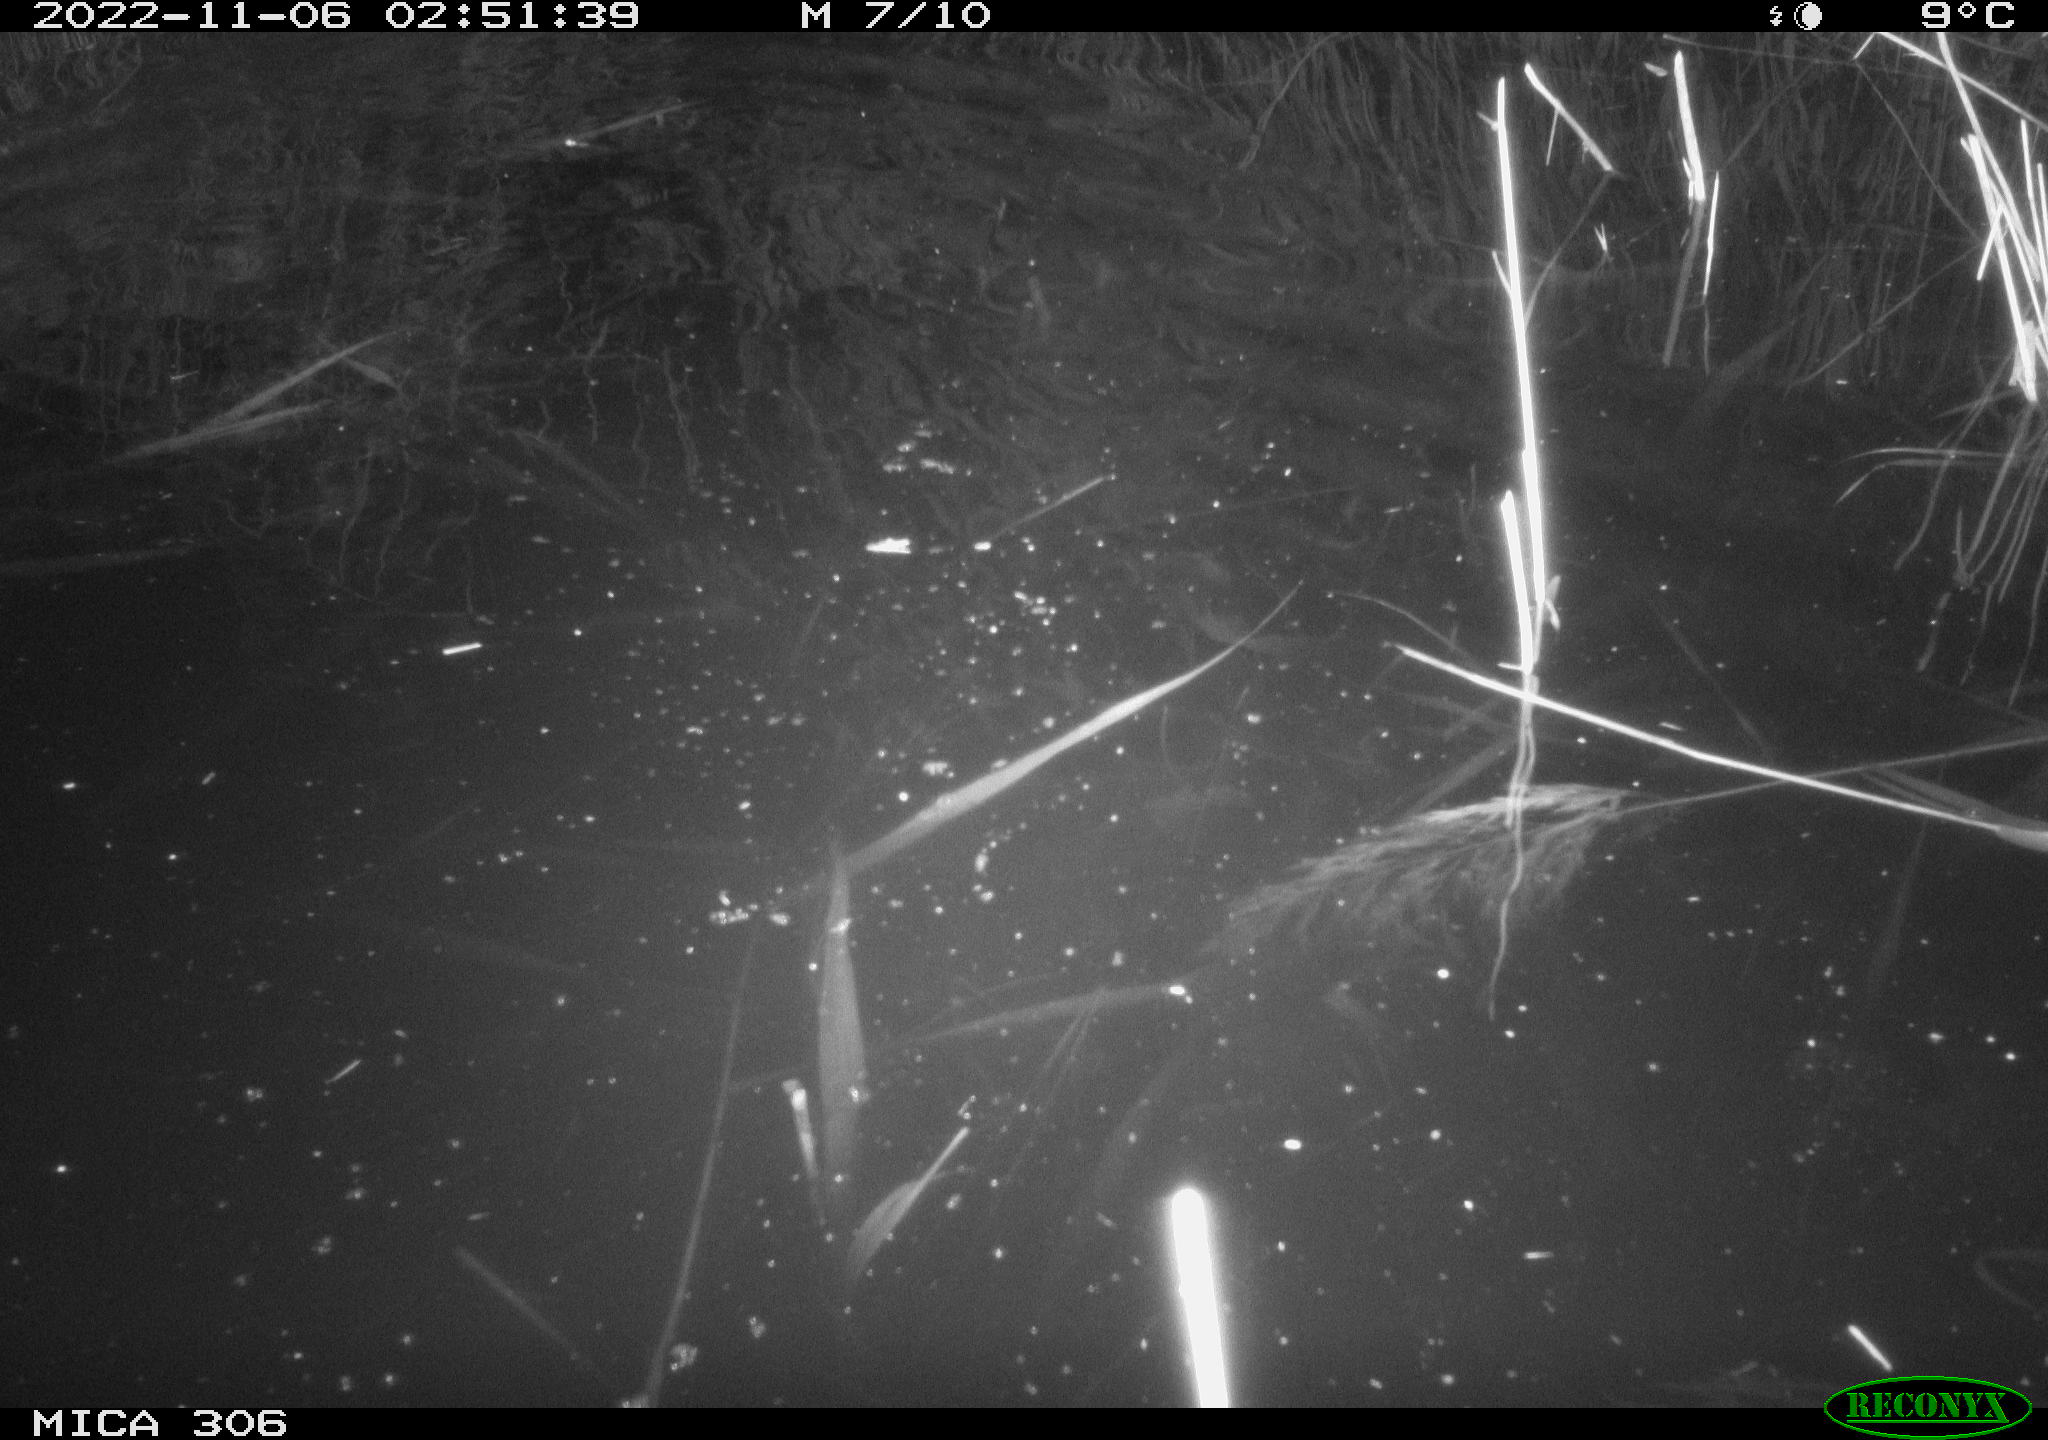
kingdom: Animalia
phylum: Chordata
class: Mammalia
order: Rodentia
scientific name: Rodentia
